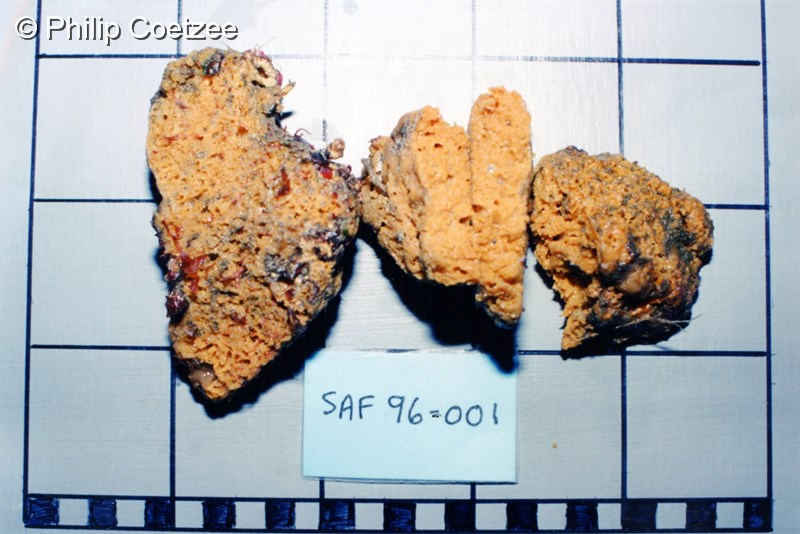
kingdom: Animalia
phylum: Porifera
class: Demospongiae
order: Poecilosclerida
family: Coelosphaeridae
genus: Lissodendoryx
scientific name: Lissodendoryx ternatensis
